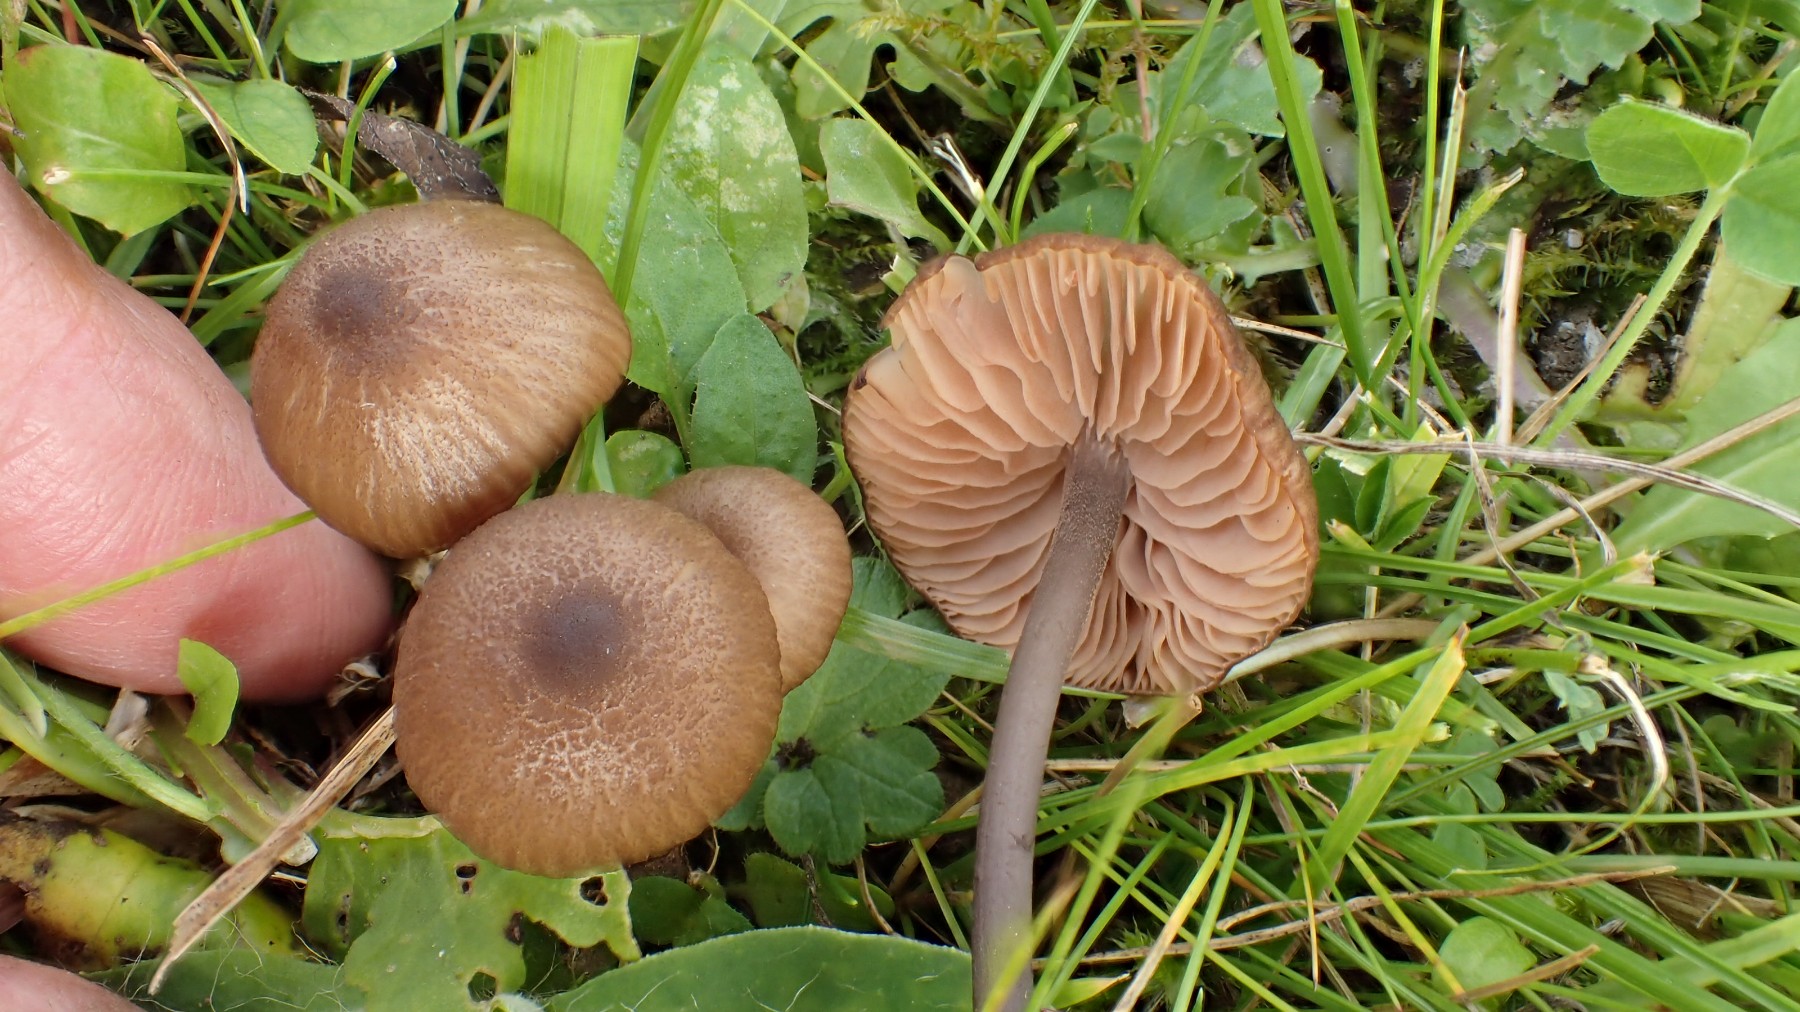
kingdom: Fungi
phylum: Basidiomycota
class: Agaricomycetes
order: Agaricales
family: Entolomataceae
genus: Entoloma
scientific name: Entoloma
